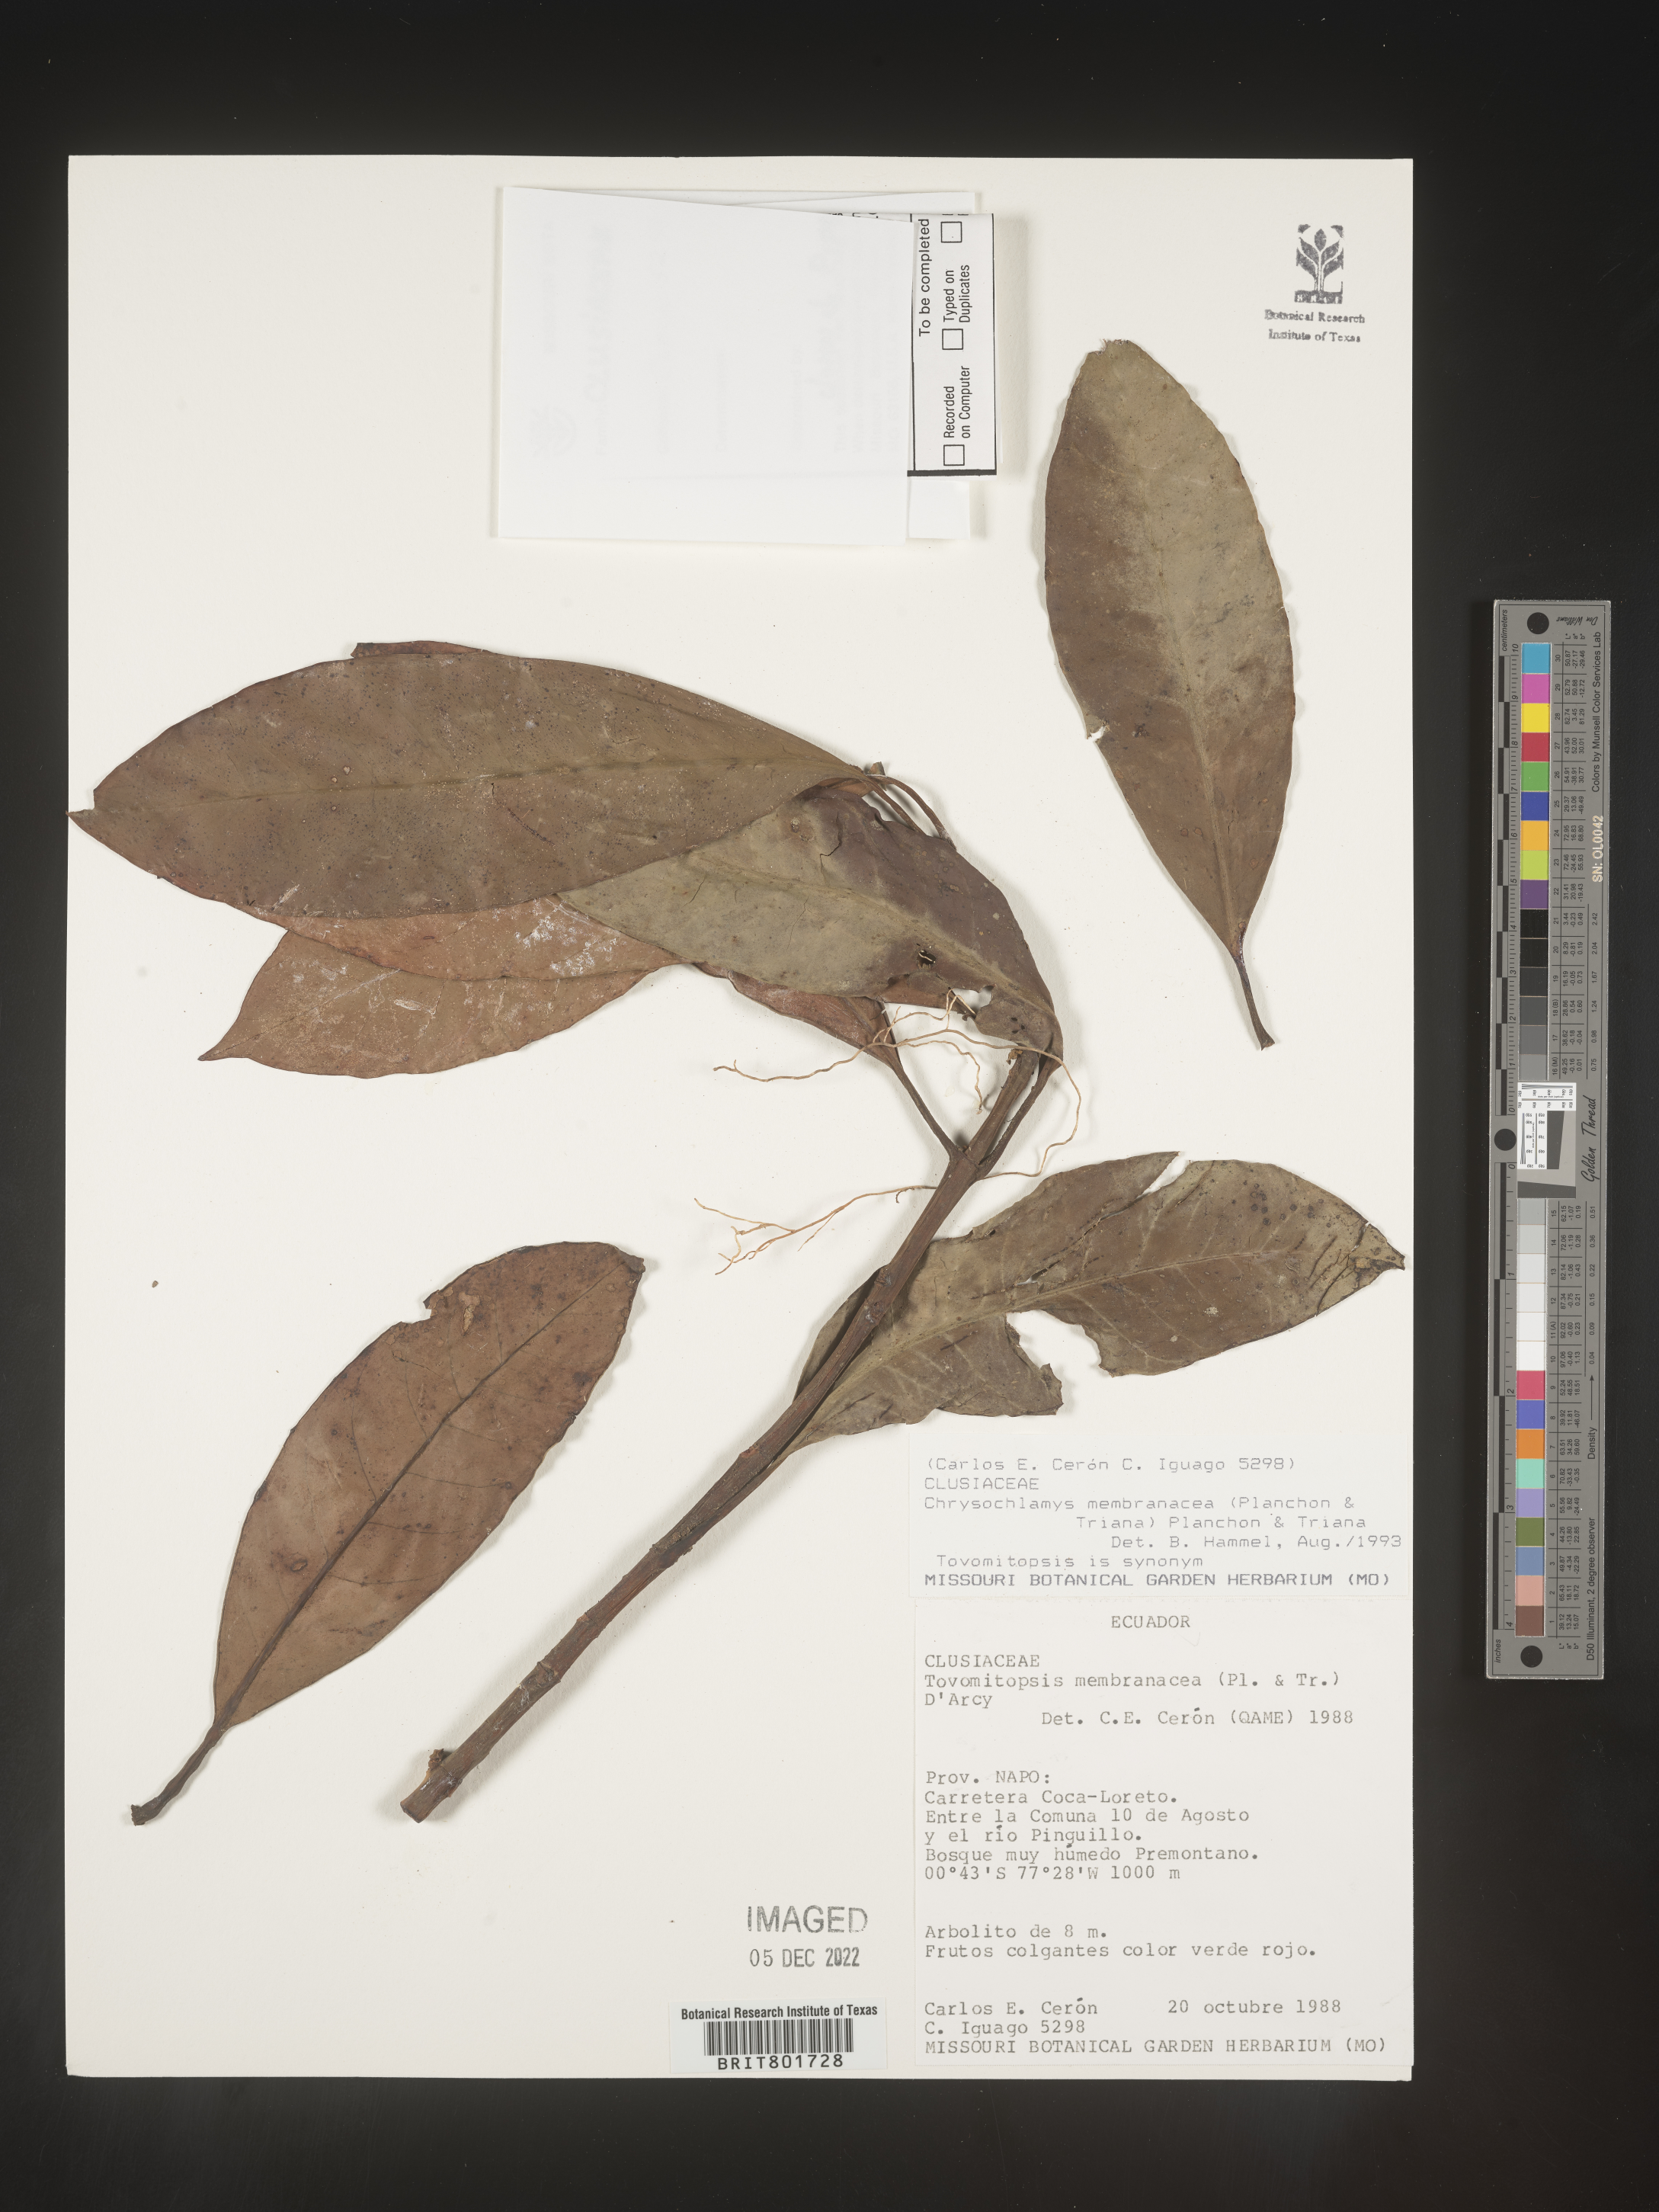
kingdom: Plantae
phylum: Tracheophyta
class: Magnoliopsida
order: Malpighiales
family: Clusiaceae
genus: Chrysochlamys
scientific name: Chrysochlamys membranacea
